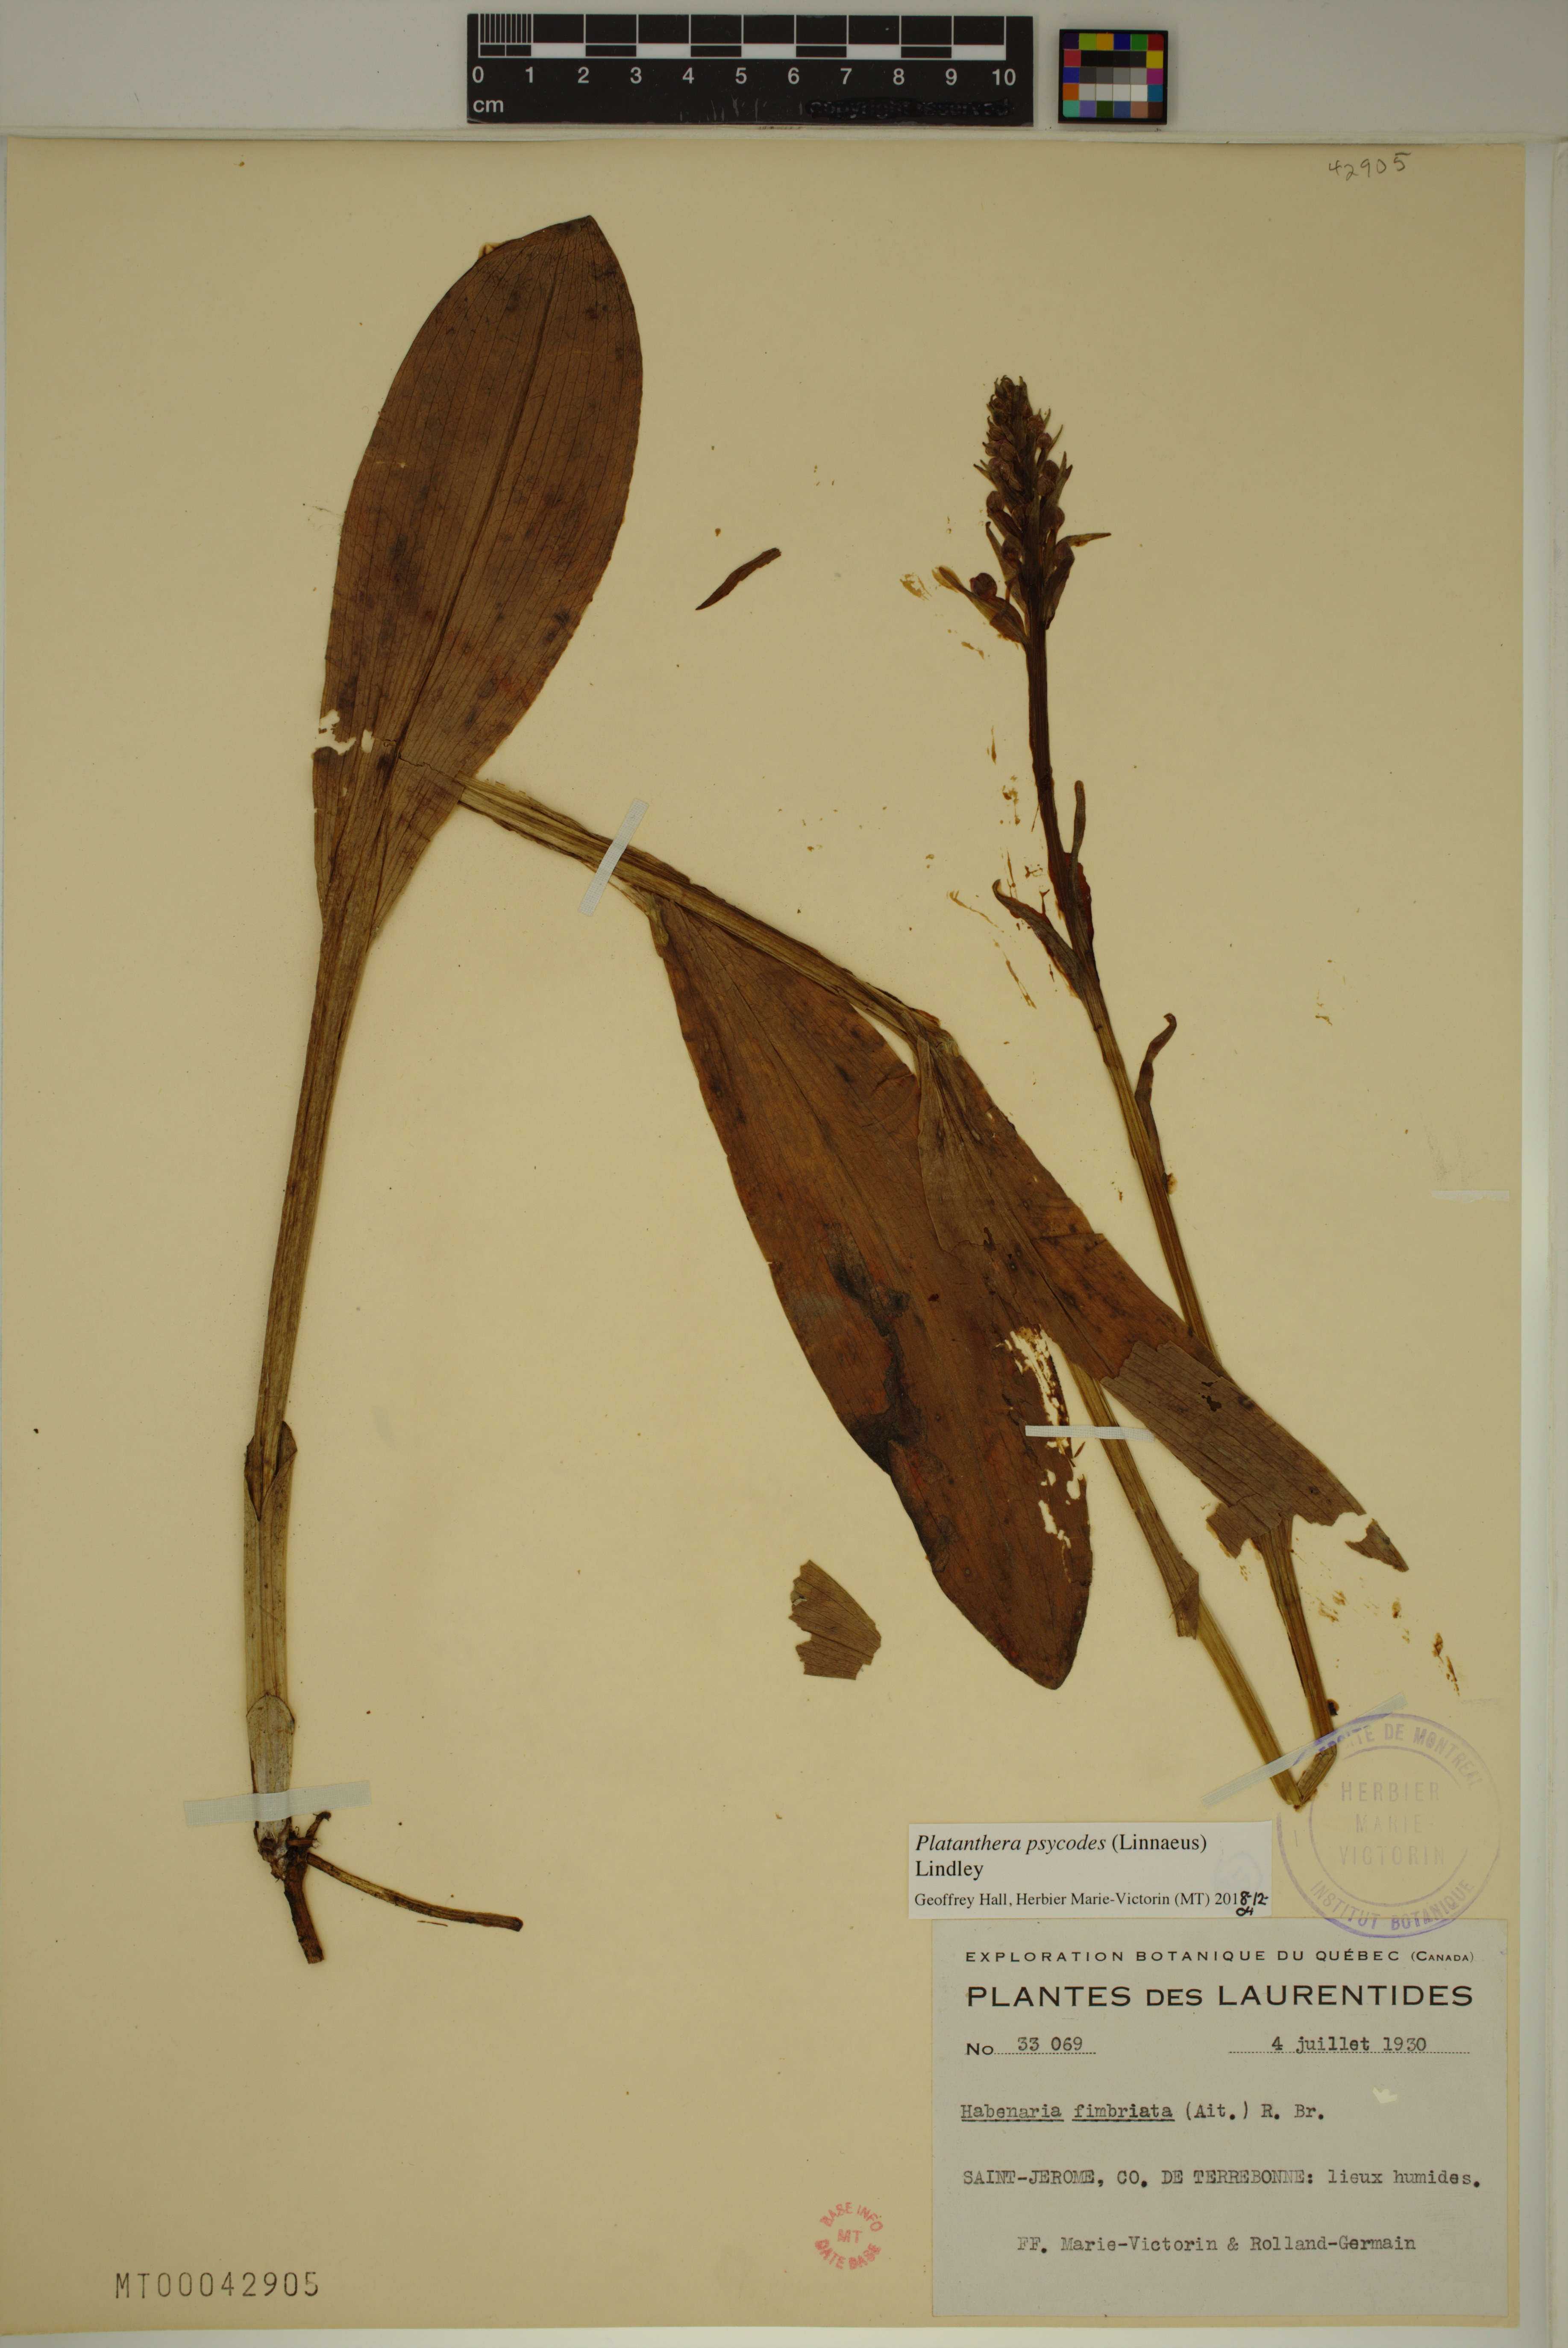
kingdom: Plantae
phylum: Tracheophyta
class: Liliopsida
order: Asparagales
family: Orchidaceae
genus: Platanthera
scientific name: Platanthera psycodes
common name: Lesser purple fringed orchid
